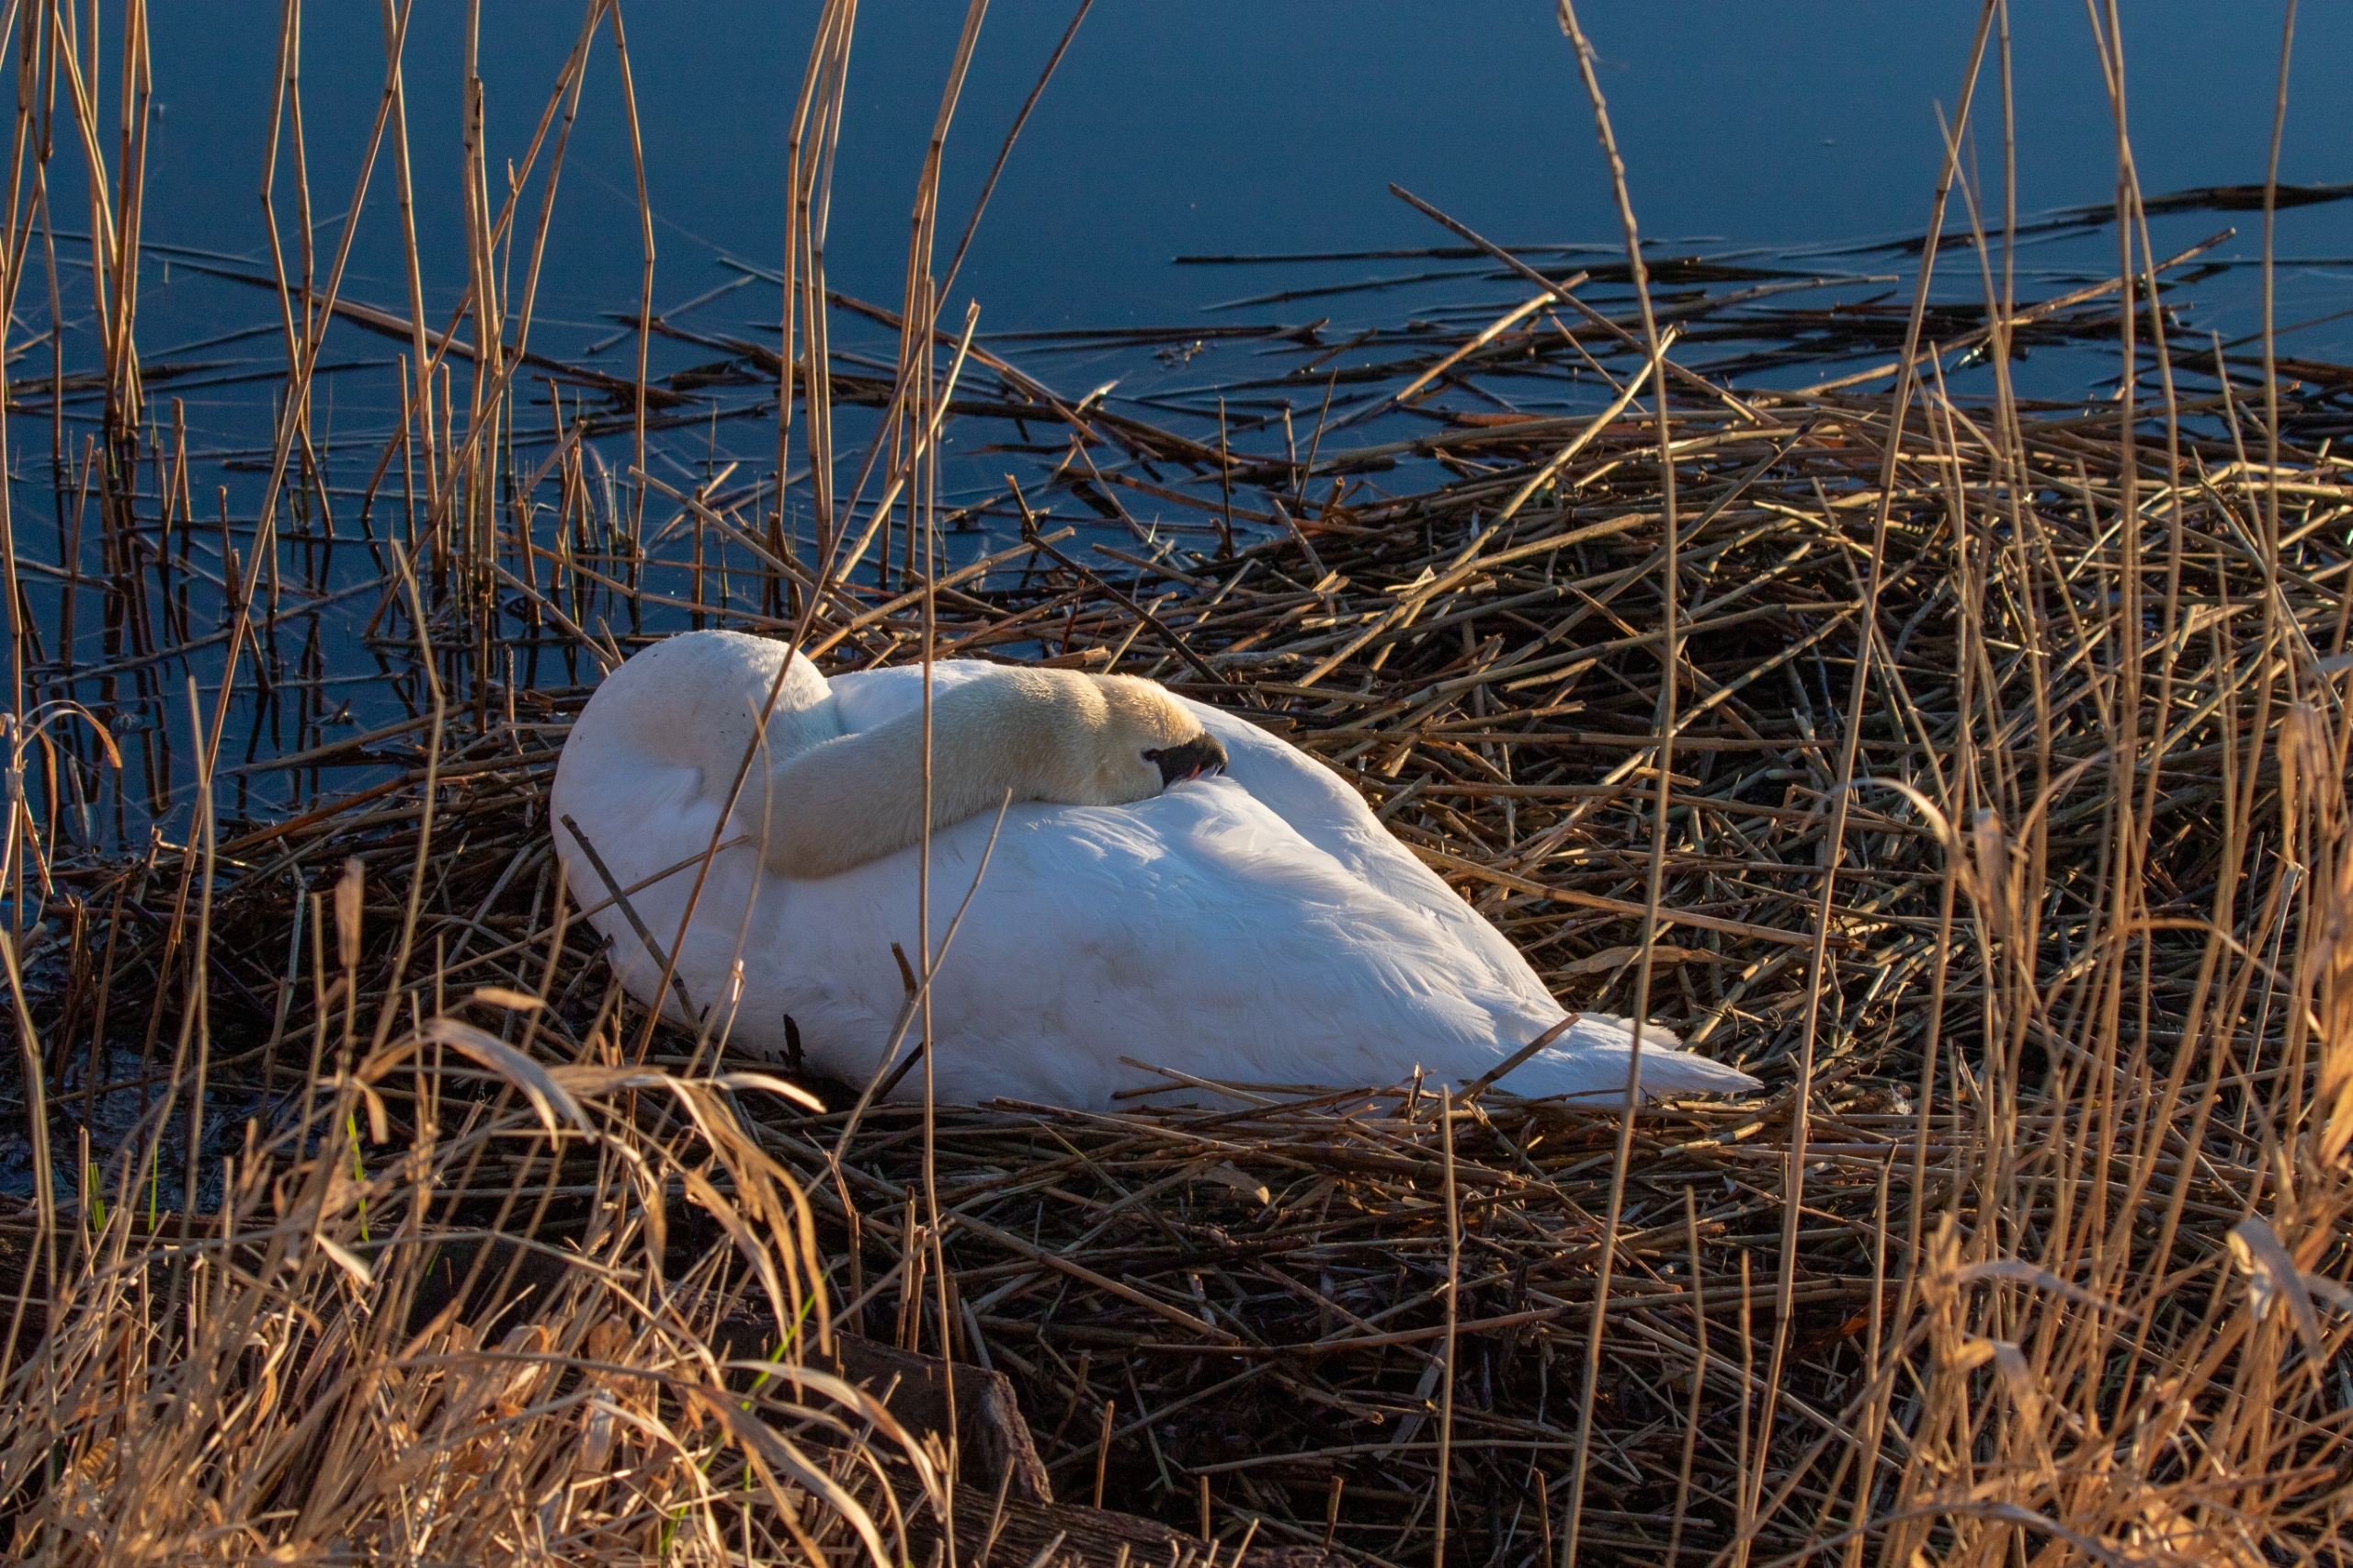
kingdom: Animalia
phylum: Chordata
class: Aves
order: Anseriformes
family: Anatidae
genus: Cygnus
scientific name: Cygnus olor
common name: Knopsvane
